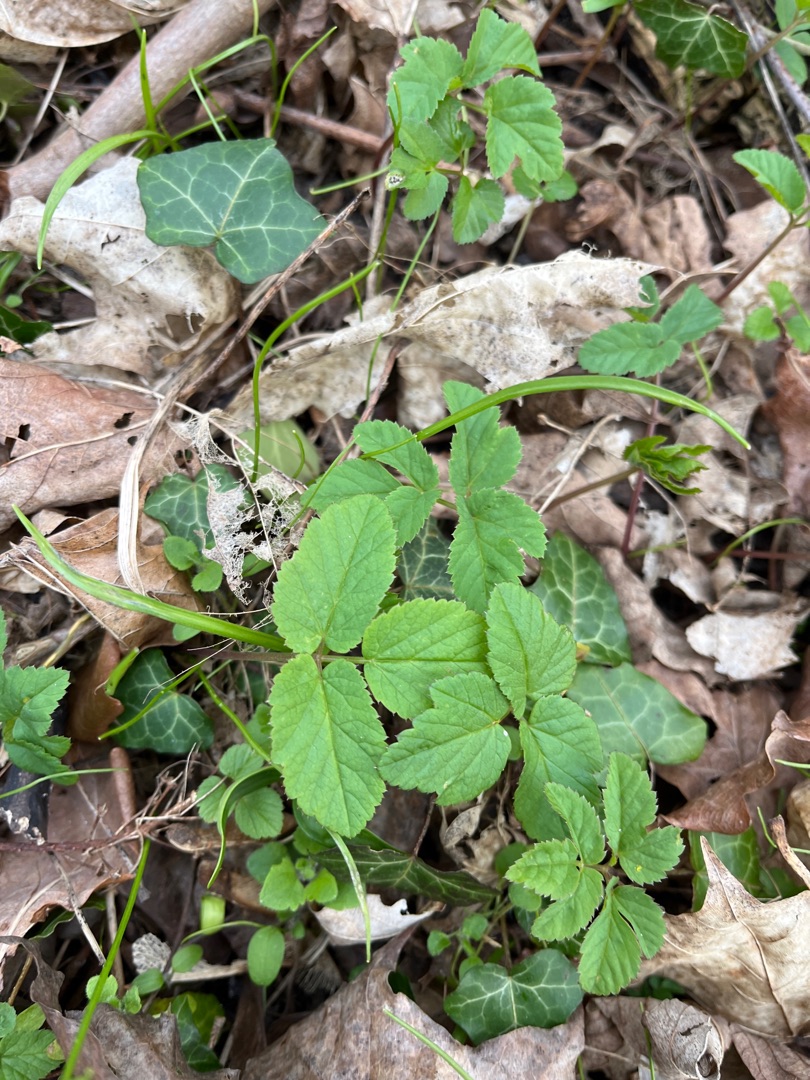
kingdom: Plantae
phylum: Tracheophyta
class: Magnoliopsida
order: Apiales
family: Apiaceae
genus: Aegopodium
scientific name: Aegopodium podagraria
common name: Skvalderkål
